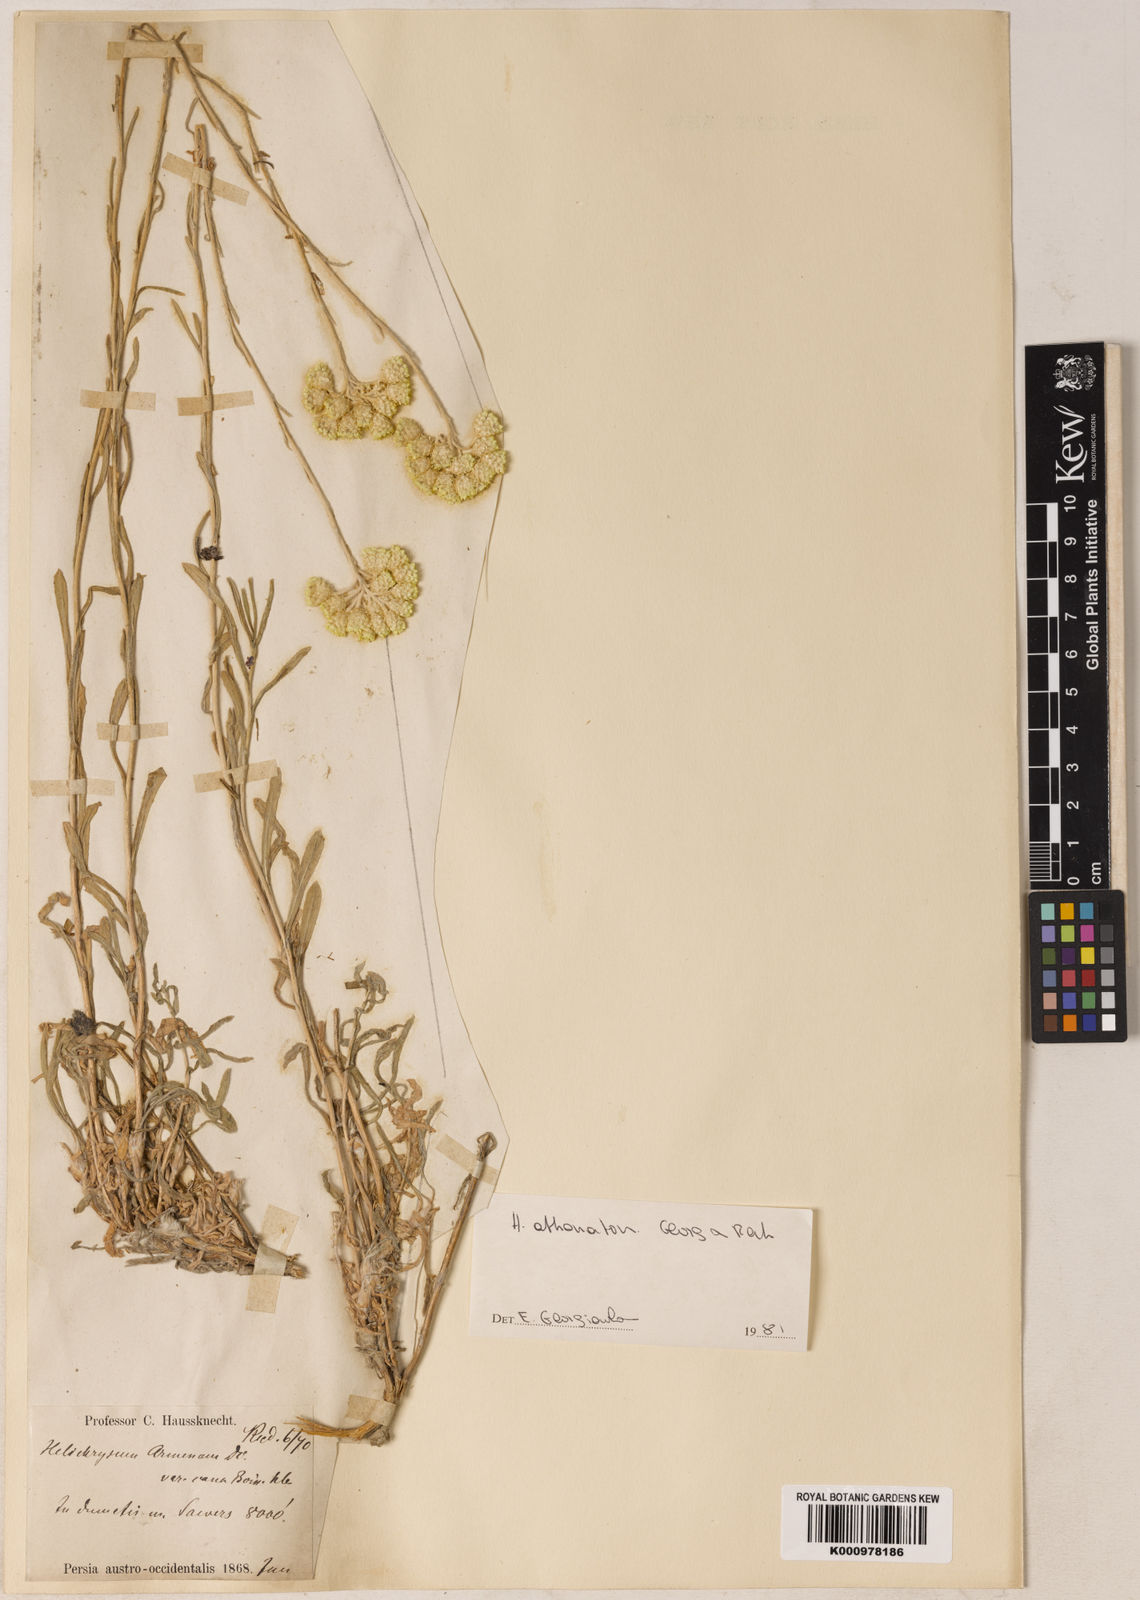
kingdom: Plantae
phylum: Tracheophyta
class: Magnoliopsida
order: Asterales
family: Asteraceae
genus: Helichrysum
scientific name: Helichrysum armenium
